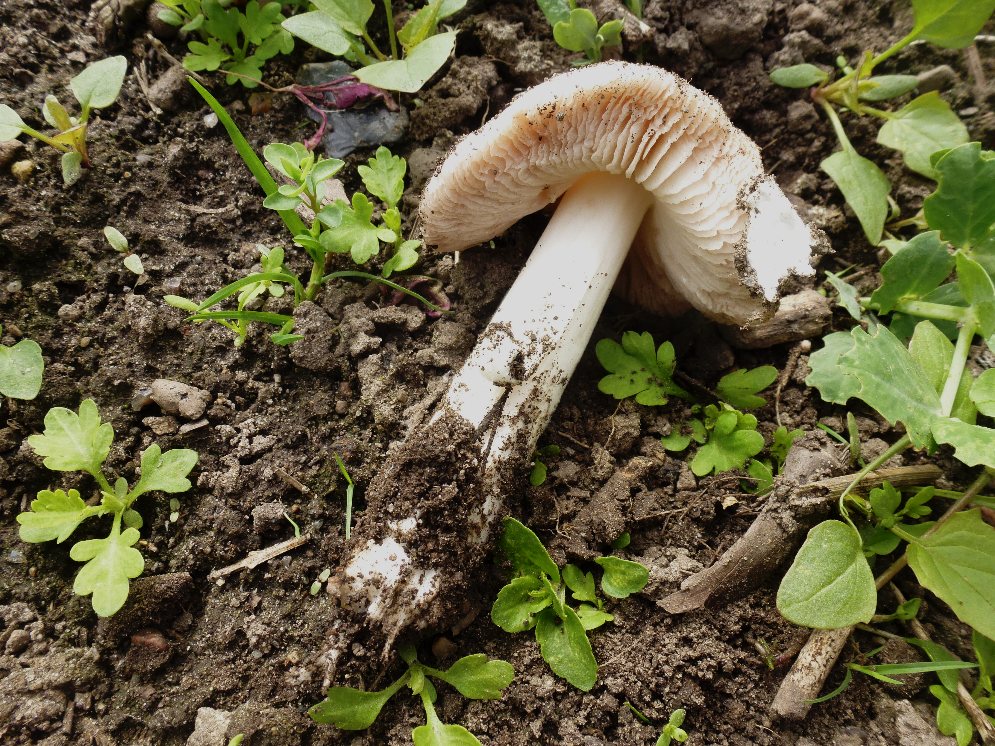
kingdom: Fungi
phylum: Basidiomycota
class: Agaricomycetes
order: Agaricales
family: Pluteaceae
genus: Volvopluteus
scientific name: Volvopluteus gloiocephalus
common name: høj posesvamp
